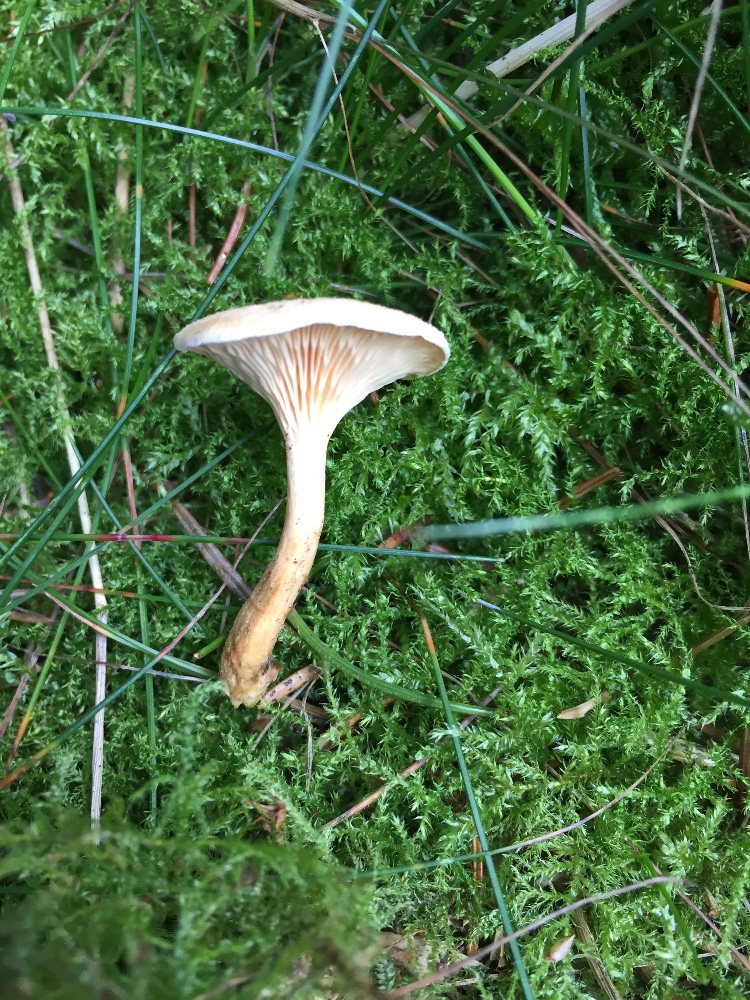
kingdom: Fungi
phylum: Basidiomycota
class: Agaricomycetes
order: Boletales
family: Hygrophoropsidaceae
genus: Hygrophoropsis
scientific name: Hygrophoropsis aurantiaca
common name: almindelig orangekantarel
